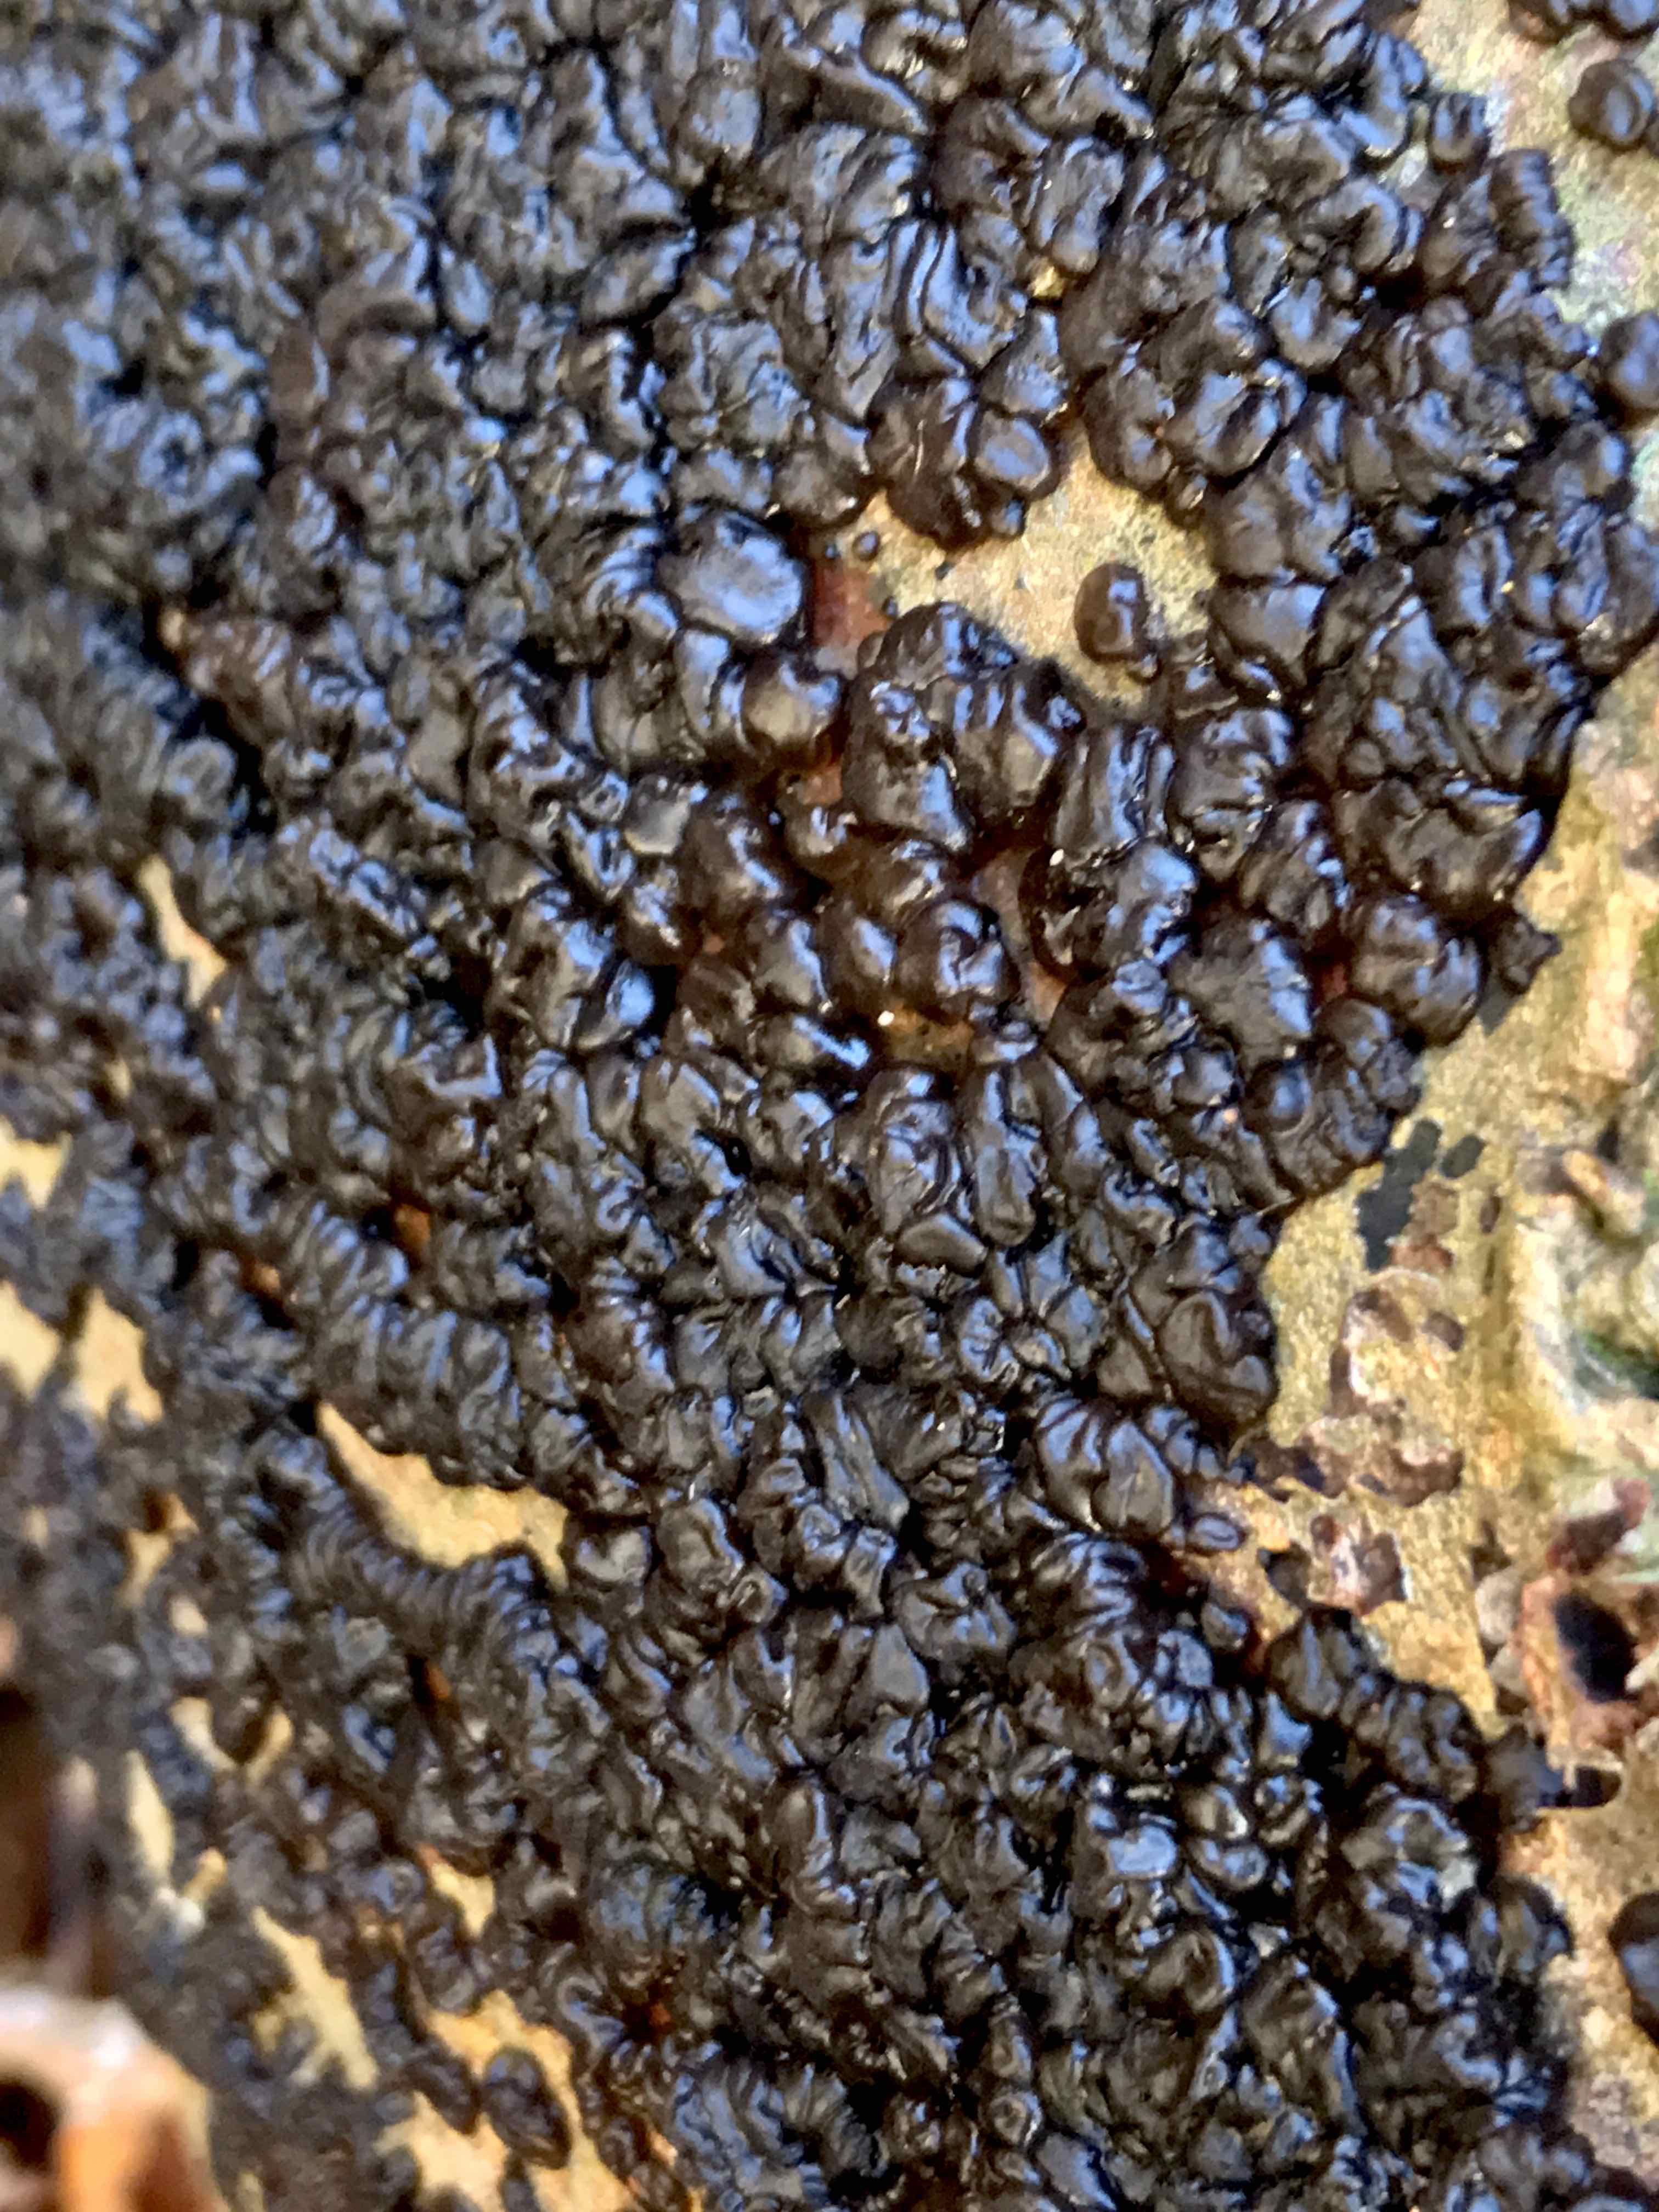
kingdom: Fungi
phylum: Basidiomycota
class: Agaricomycetes
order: Auriculariales
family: Auriculariaceae
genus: Exidia
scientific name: Exidia nigricans
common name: almindelig bævretop
